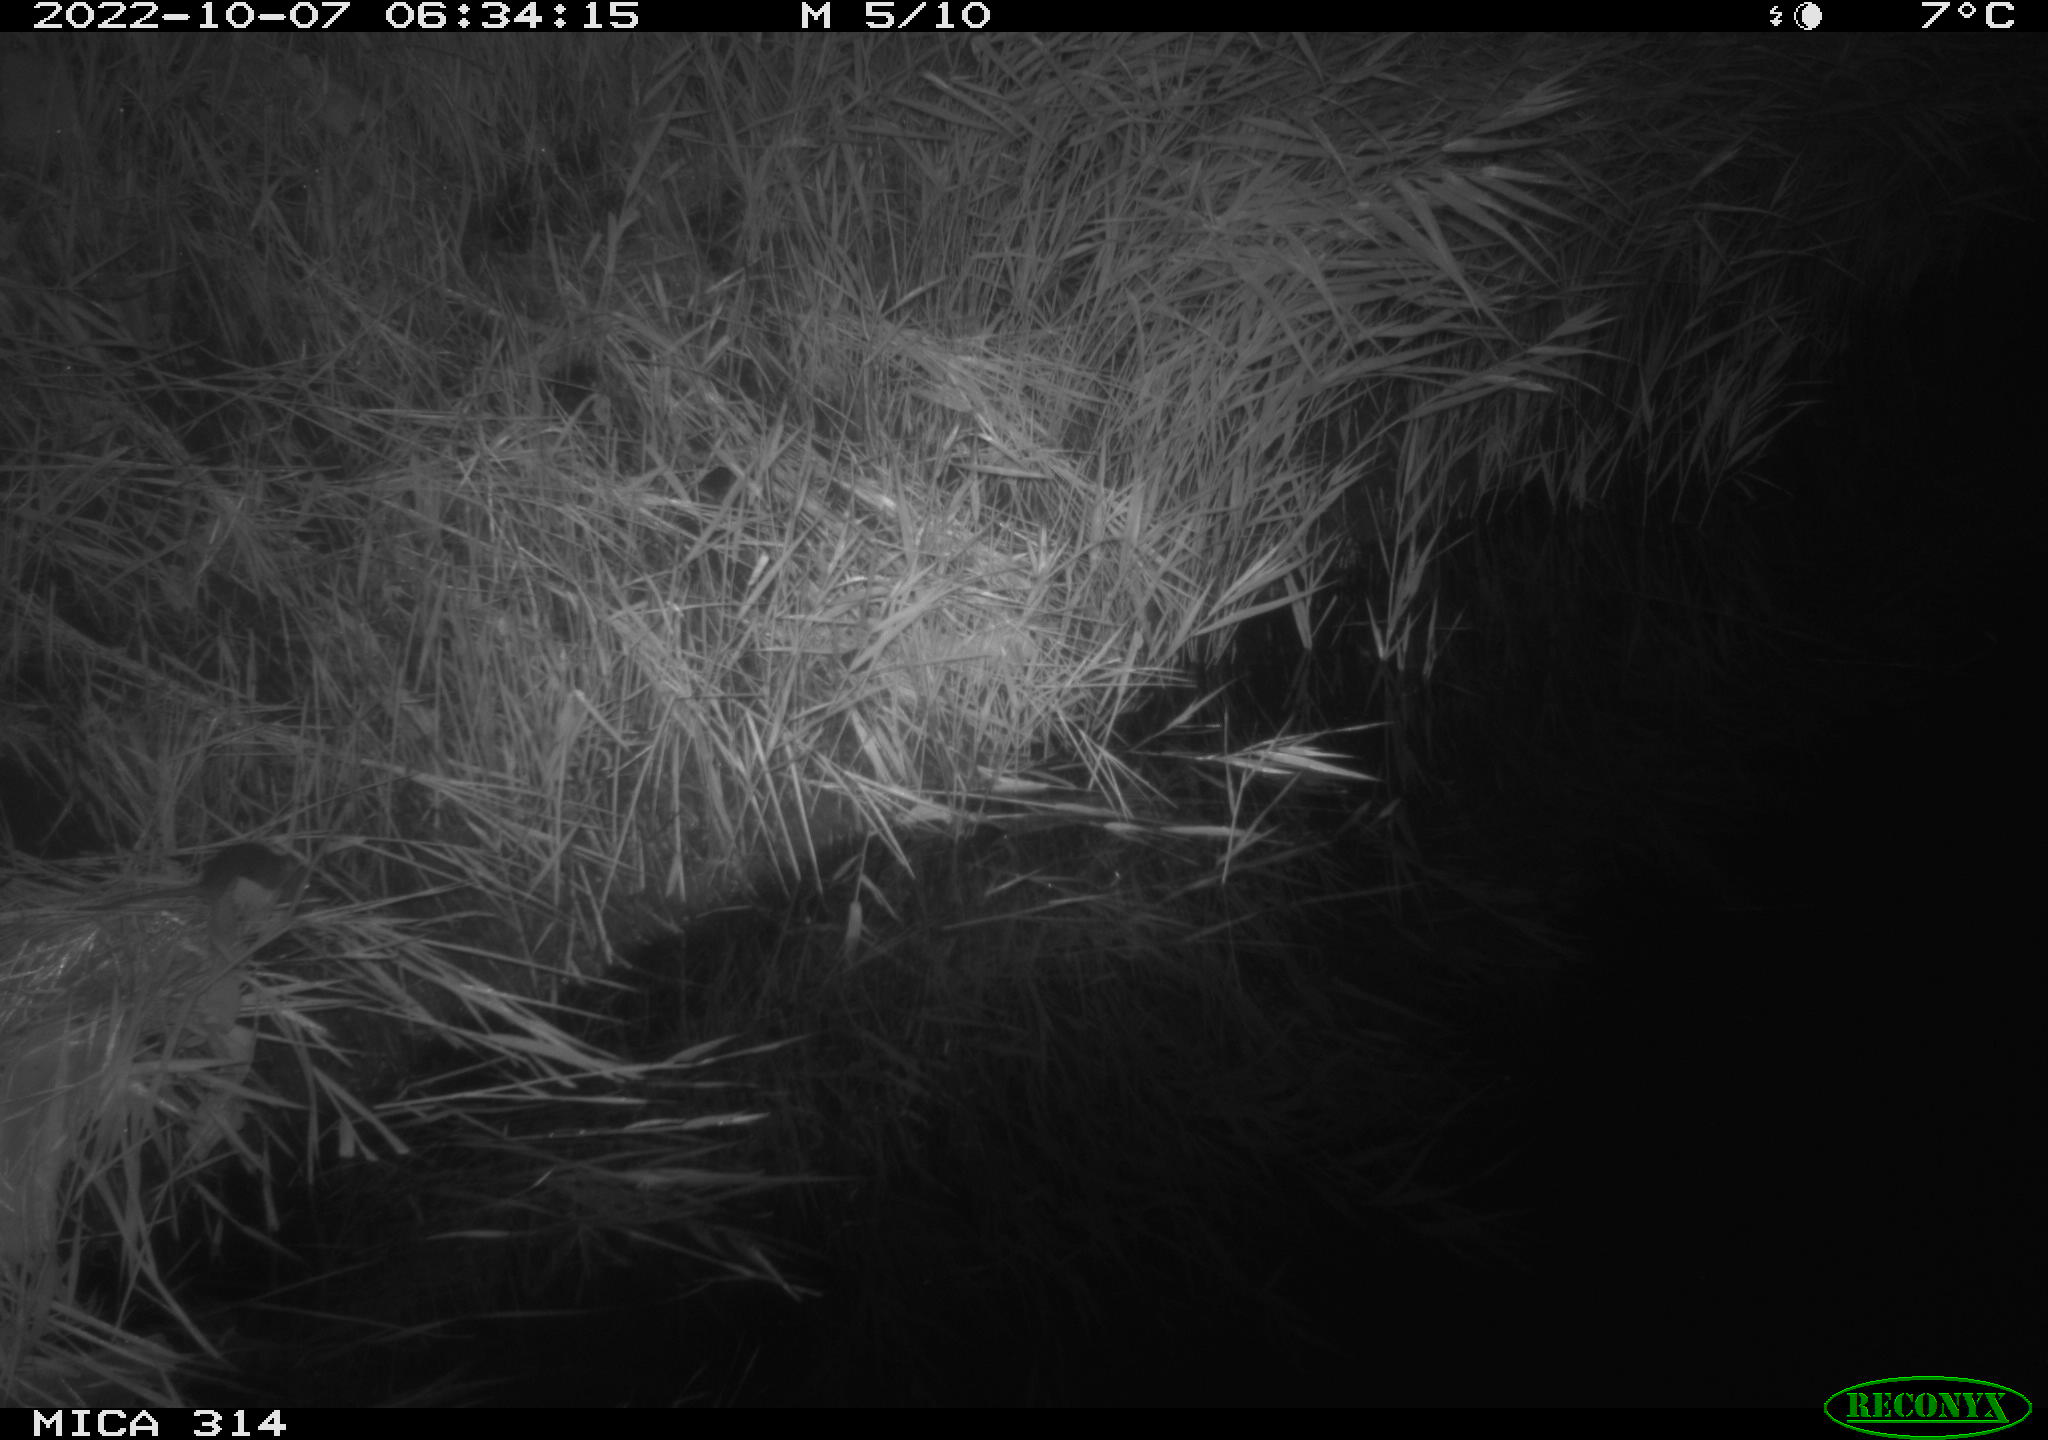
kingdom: Animalia
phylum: Chordata
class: Mammalia
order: Rodentia
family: Muridae
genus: Rattus
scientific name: Rattus norvegicus
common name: Brown rat
